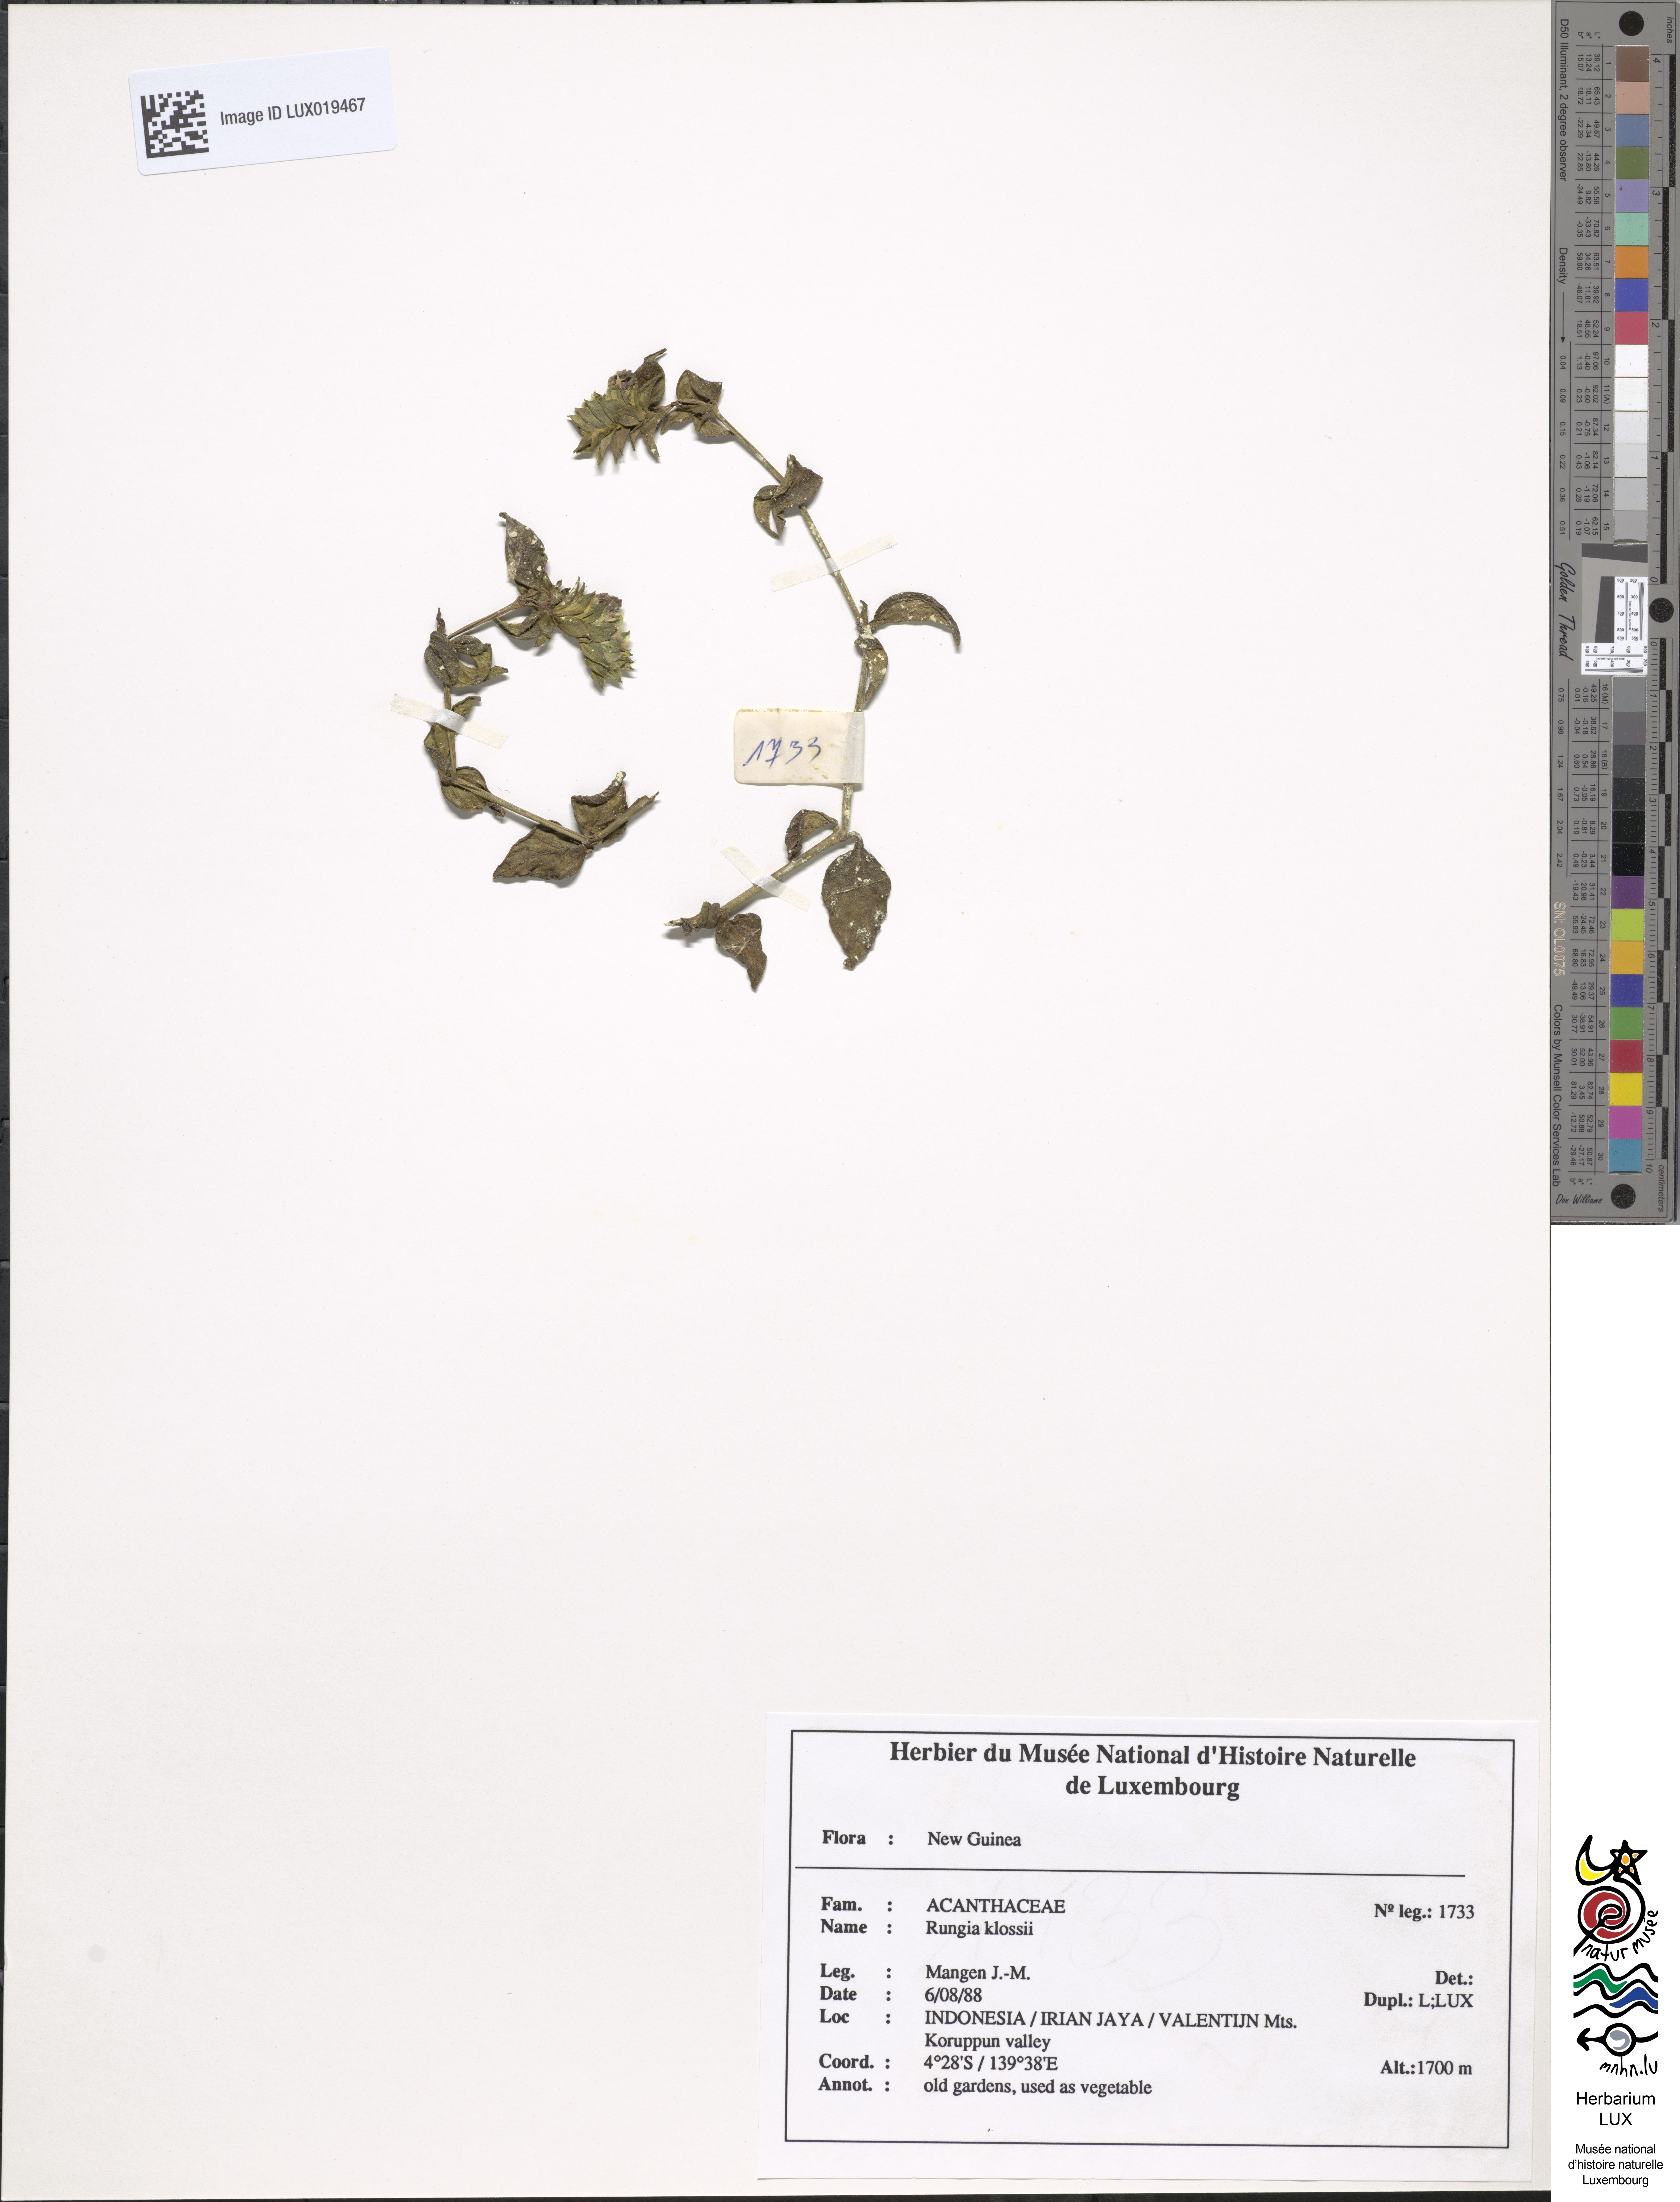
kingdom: Plantae
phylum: Tracheophyta
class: Magnoliopsida
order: Lamiales
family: Acanthaceae
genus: Rungia
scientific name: Rungia klossii
